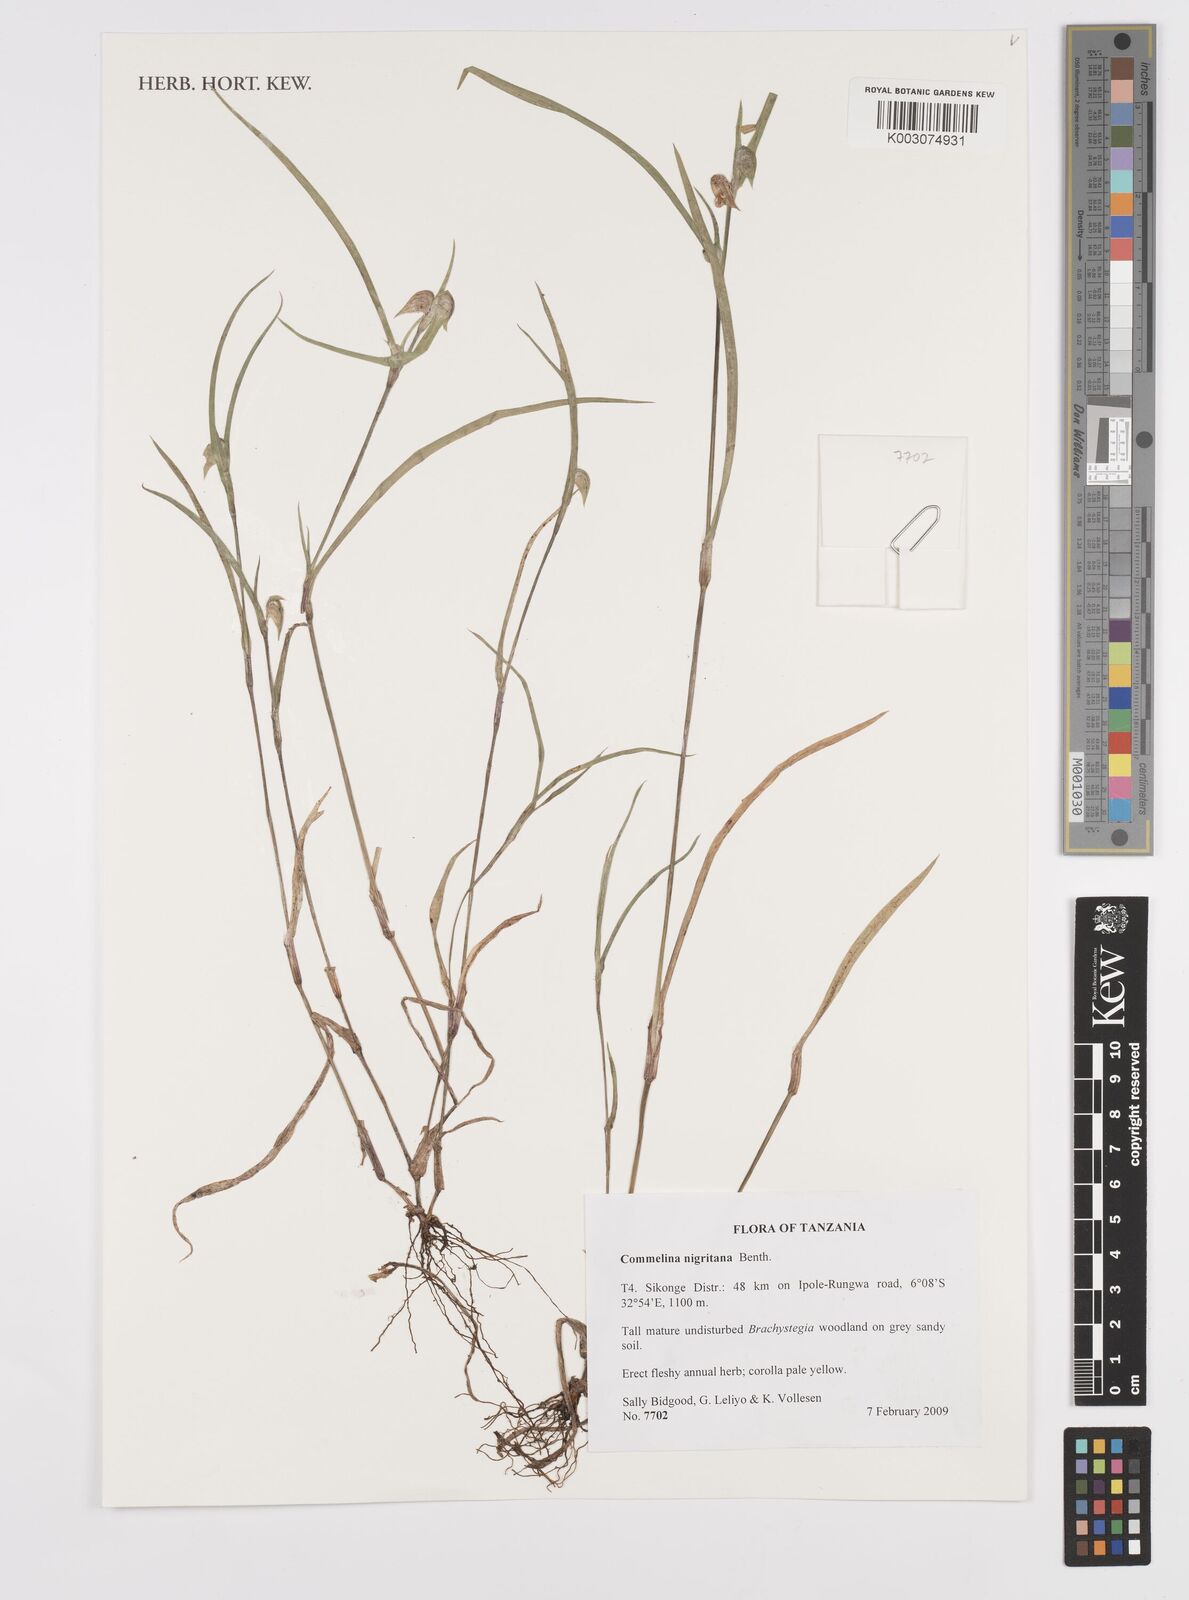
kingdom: Plantae
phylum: Tracheophyta
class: Liliopsida
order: Commelinales
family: Commelinaceae
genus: Commelina
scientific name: Commelina nigritana
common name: African dayflower
